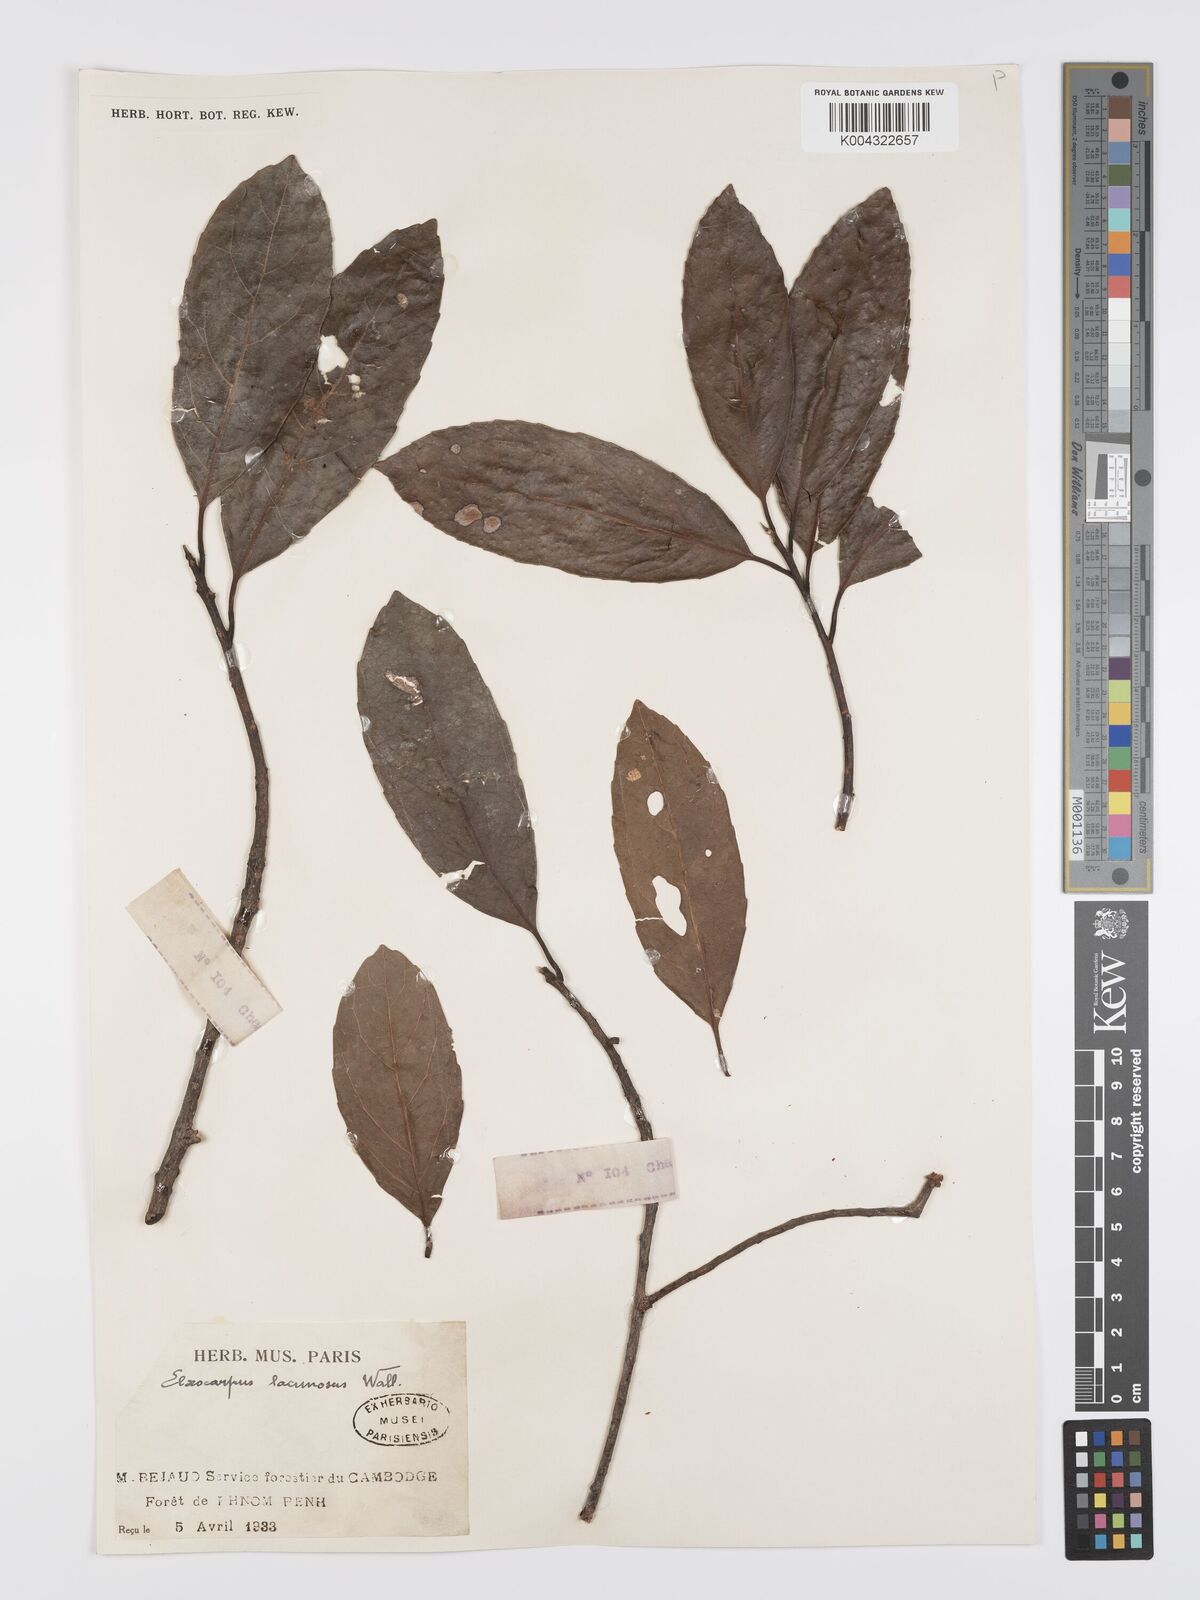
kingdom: Plantae
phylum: Tracheophyta
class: Magnoliopsida
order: Oxalidales
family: Elaeocarpaceae
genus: Elaeocarpus
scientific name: Elaeocarpus lanceifolius
